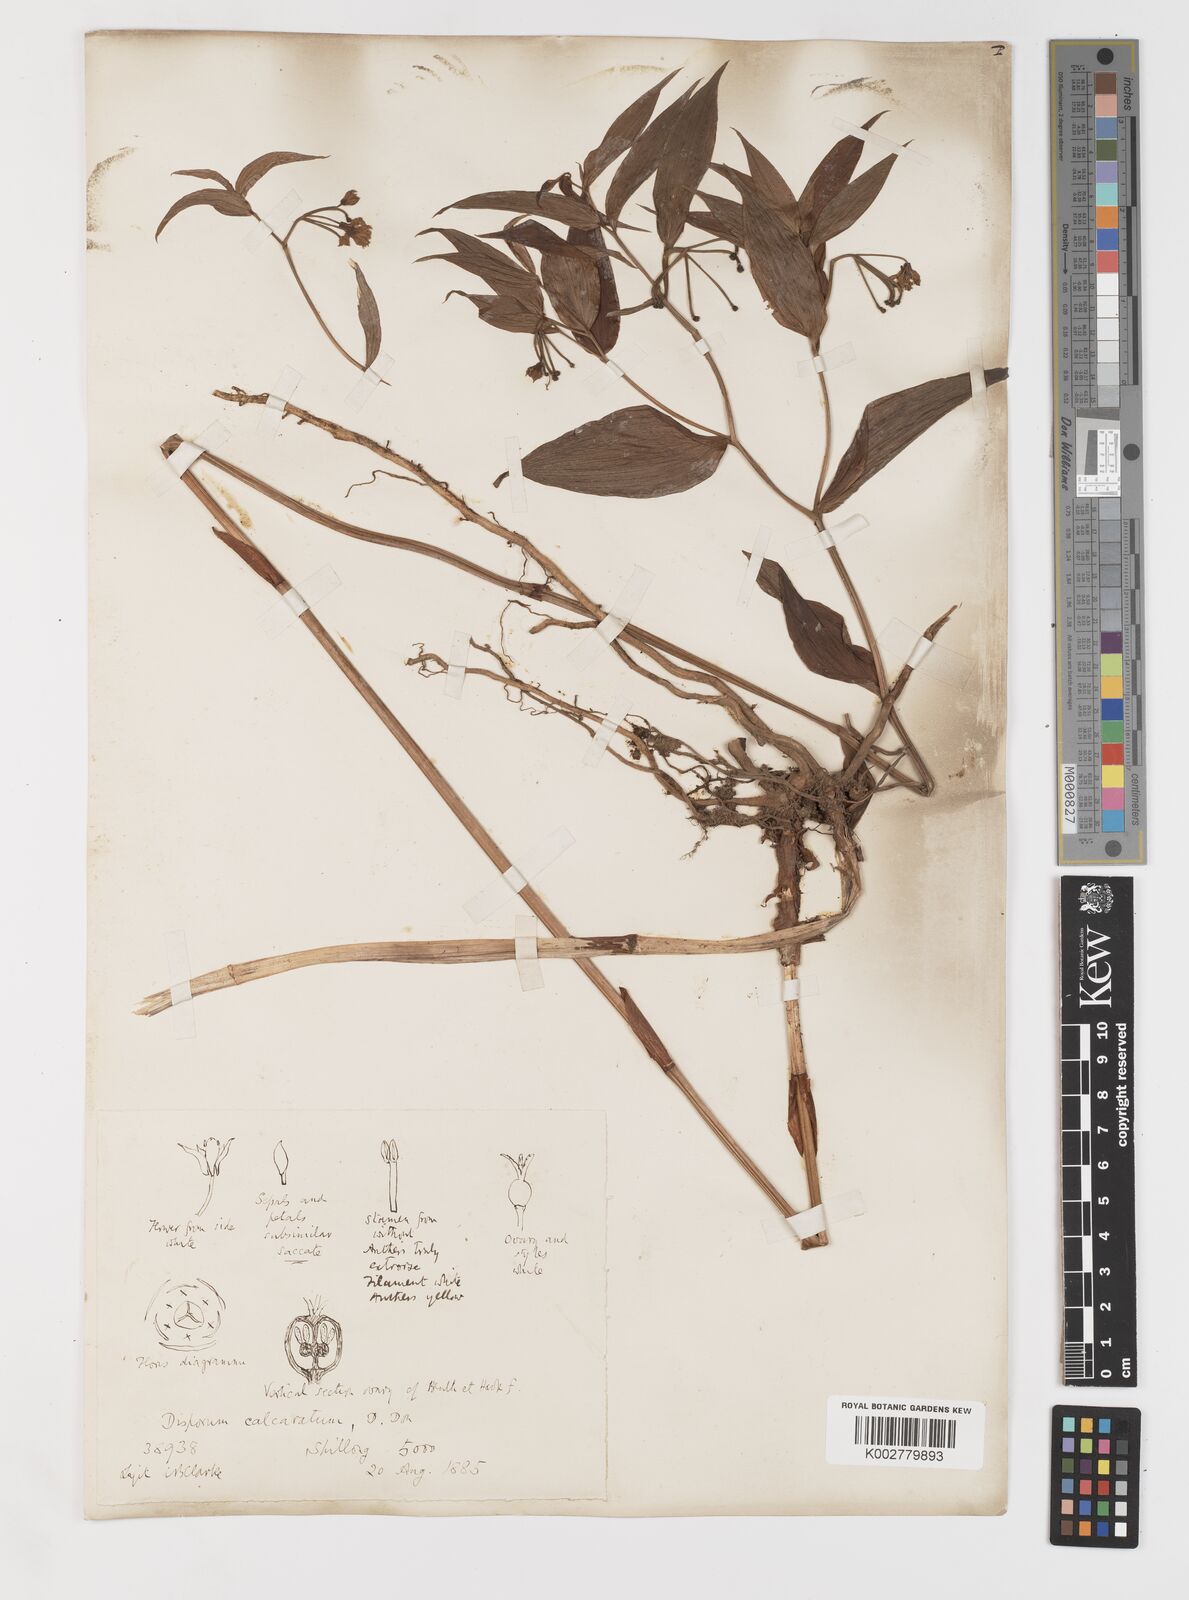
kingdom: Plantae
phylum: Tracheophyta
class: Liliopsida
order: Liliales
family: Colchicaceae
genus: Disporum
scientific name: Disporum
